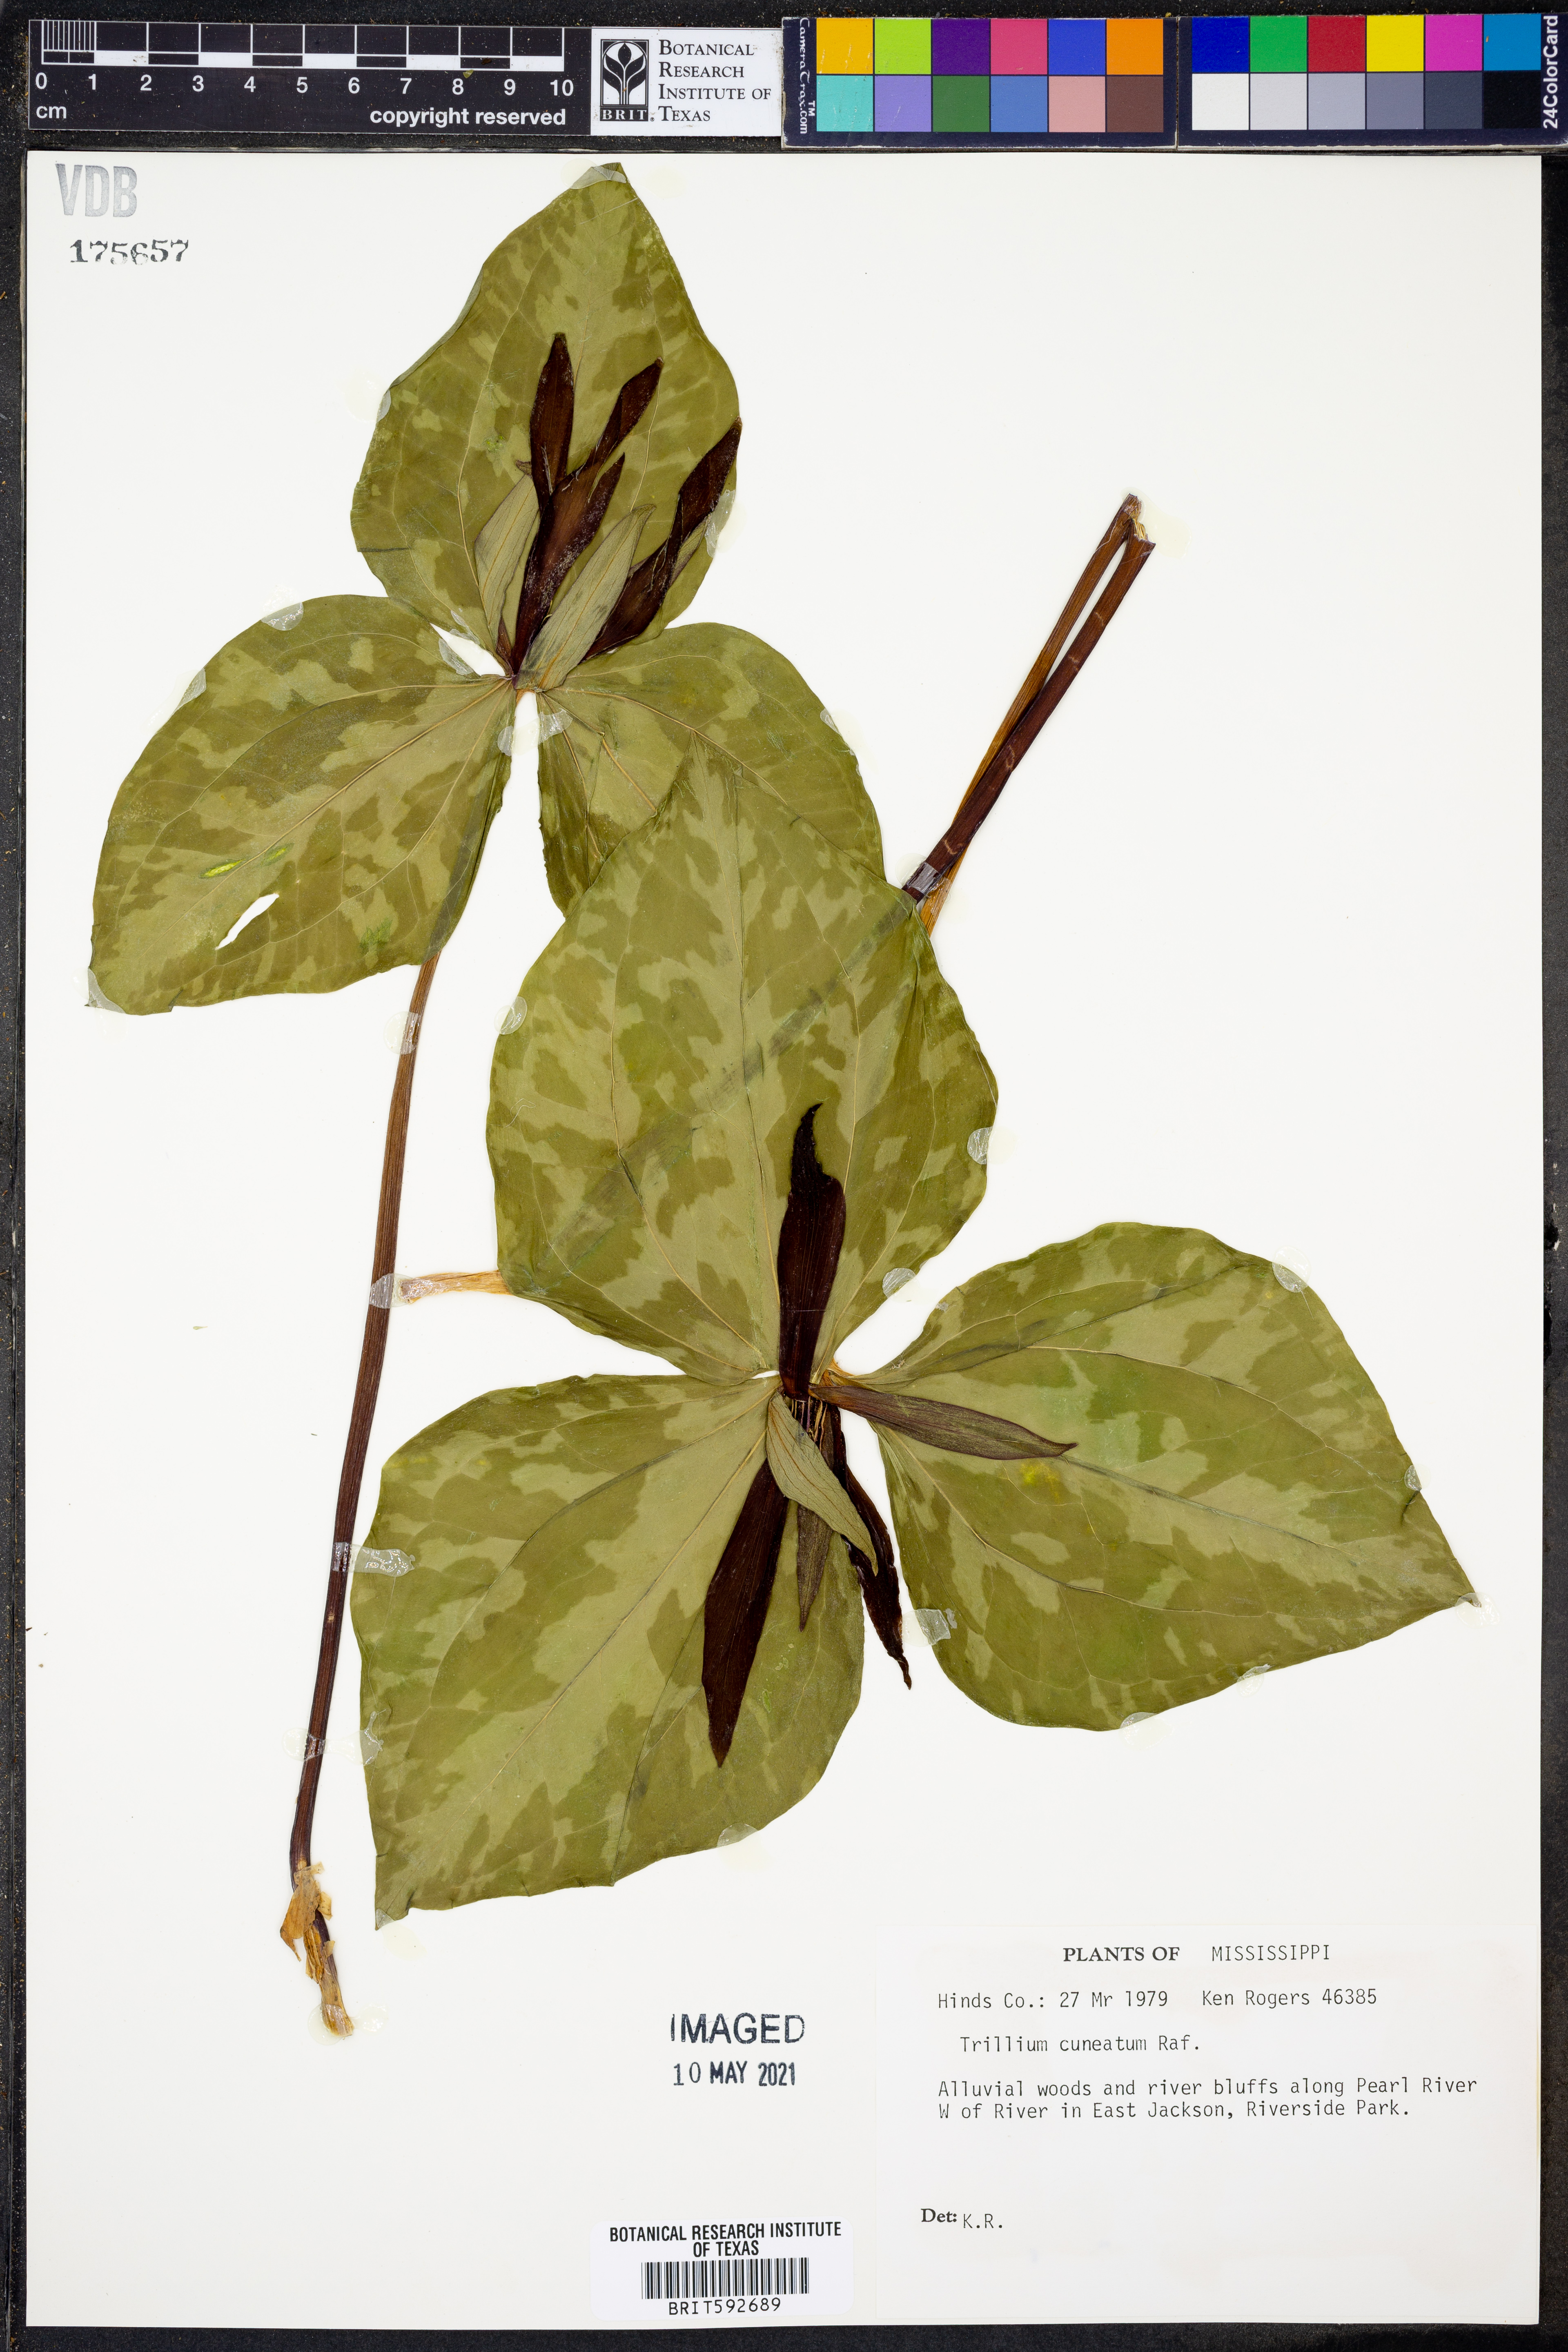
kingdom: Plantae
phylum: Tracheophyta
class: Liliopsida
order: Liliales
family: Melanthiaceae
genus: Trillium
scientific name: Trillium cuneatum
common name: Cuneate trillium
